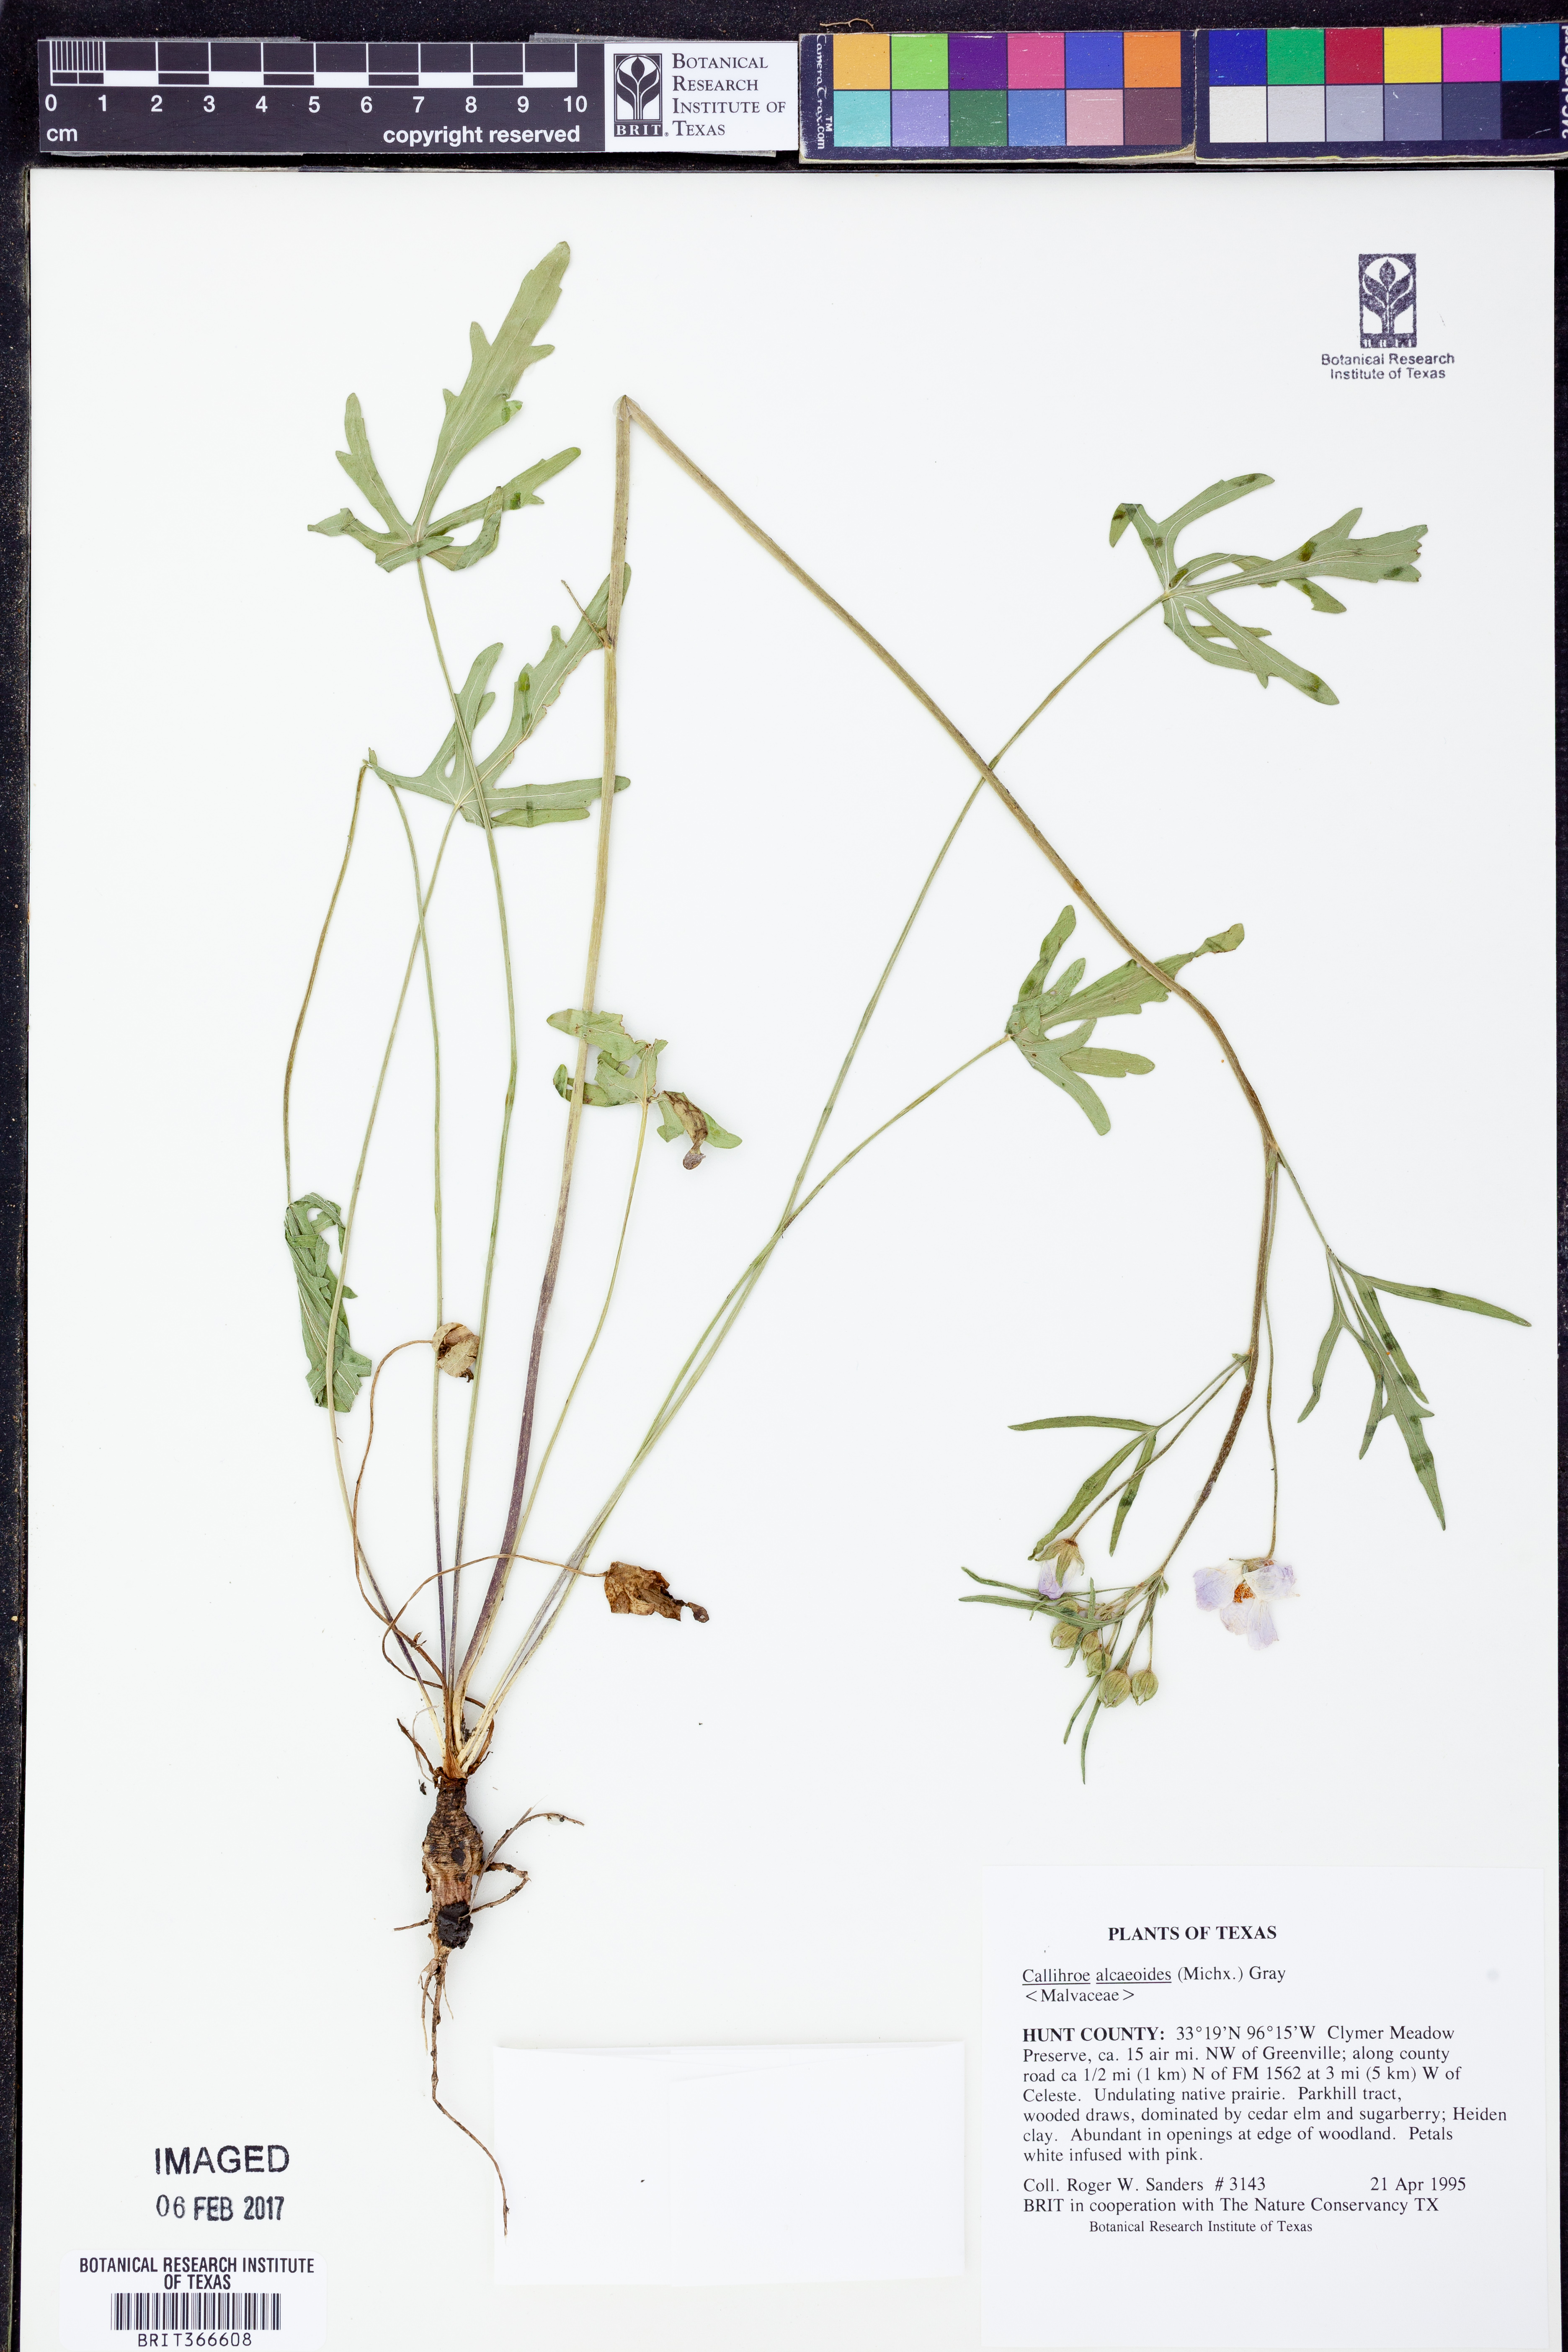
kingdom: Plantae
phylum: Tracheophyta
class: Magnoliopsida
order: Malvales
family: Malvaceae
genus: Callirhoe
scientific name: Callirhoe alcaeoides
